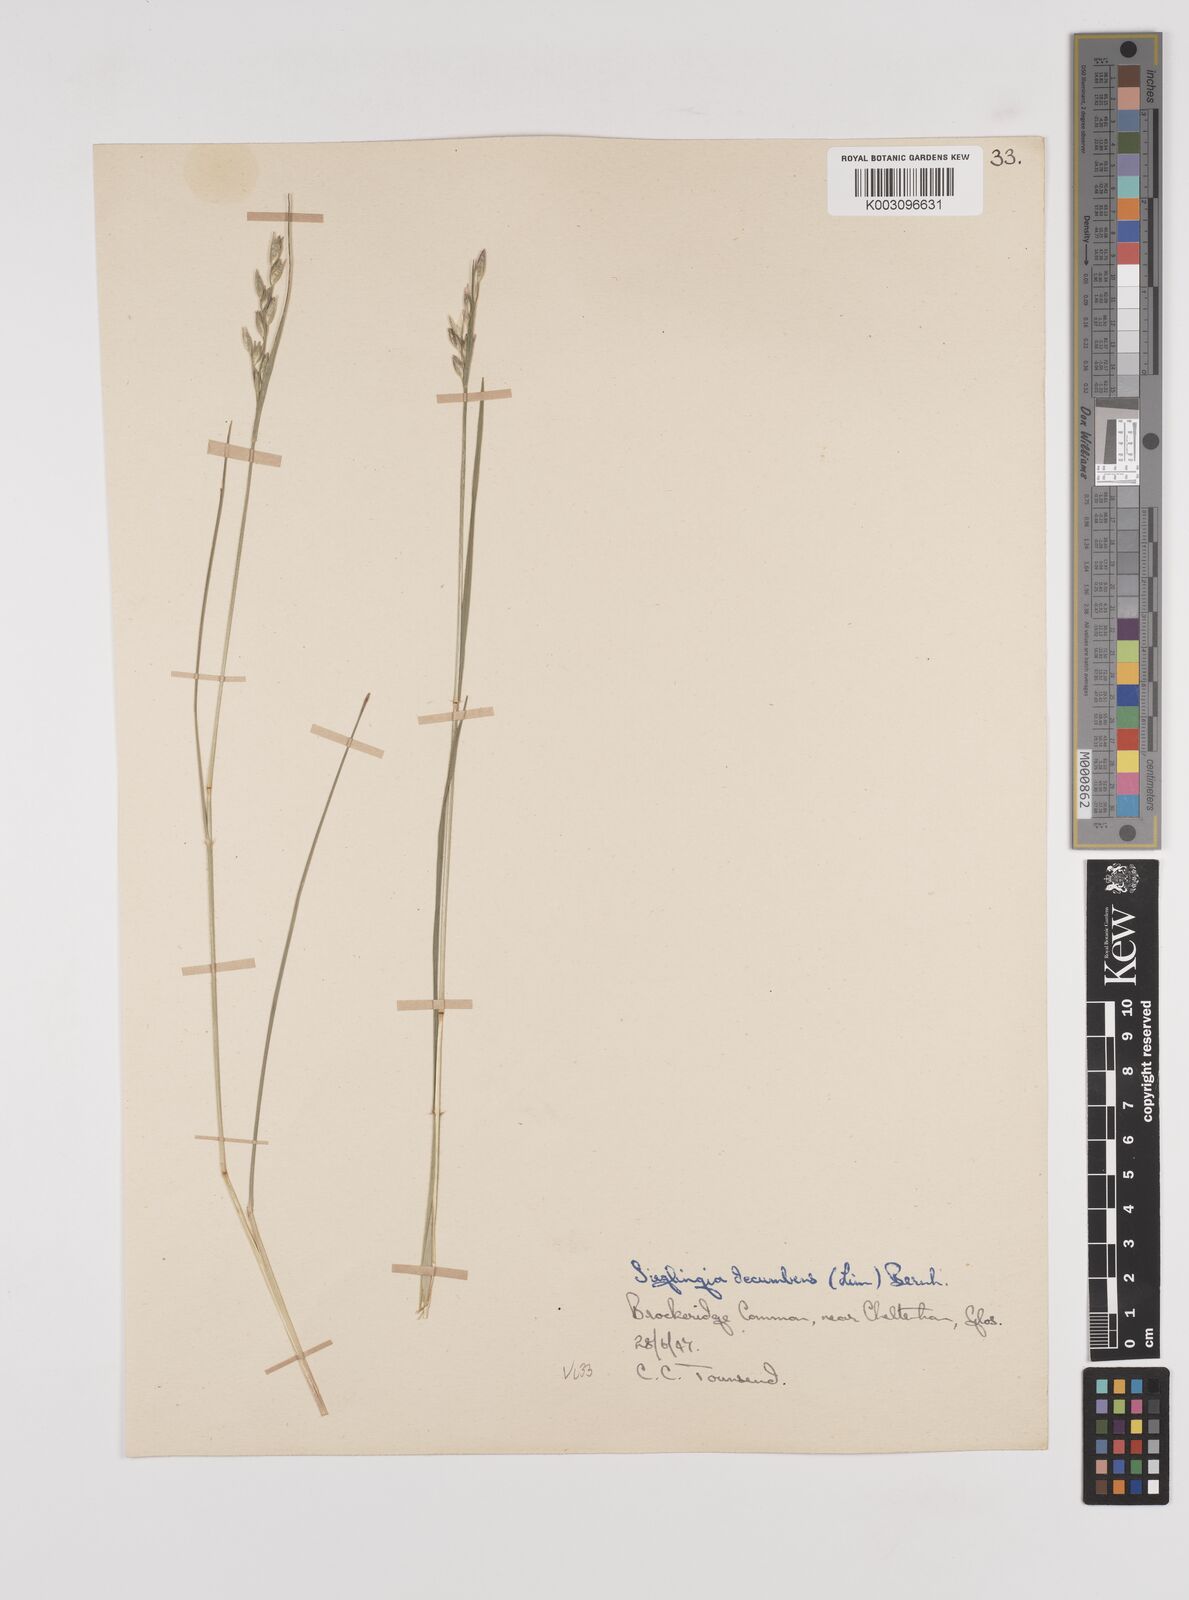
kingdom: Plantae
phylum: Tracheophyta
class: Liliopsida
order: Poales
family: Poaceae
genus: Danthonia
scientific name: Danthonia decumbens
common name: Common heathgrass
